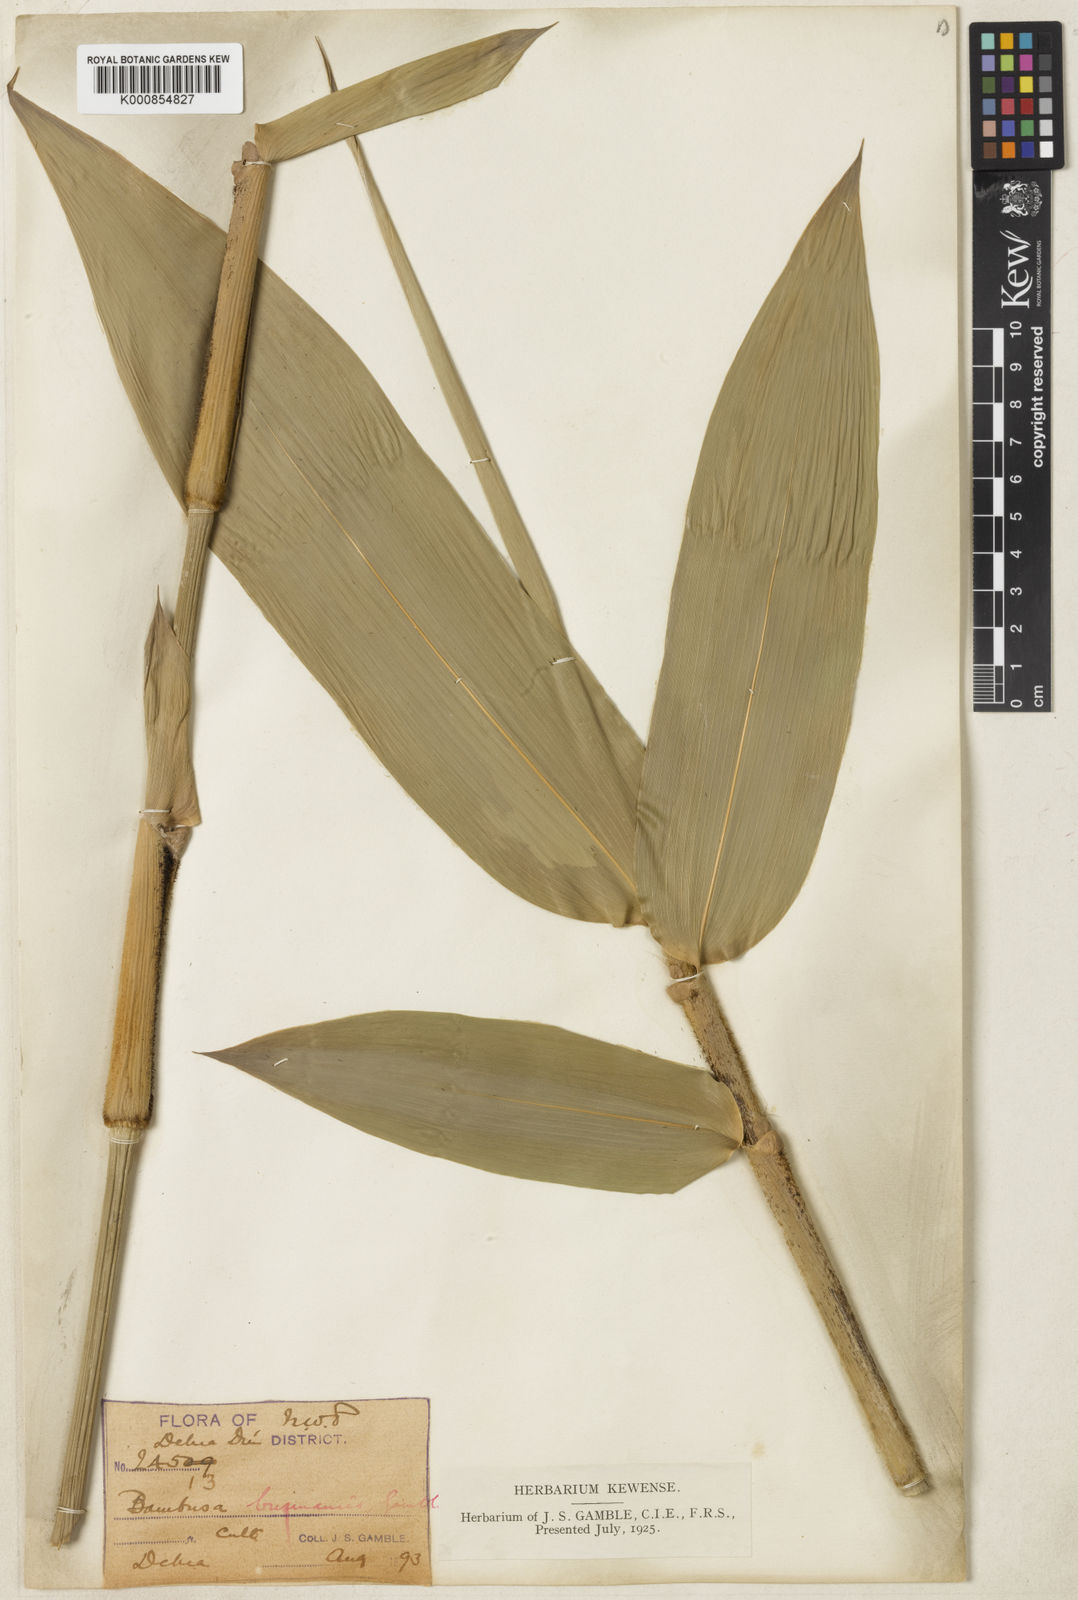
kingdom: Plantae
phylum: Tracheophyta
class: Liliopsida
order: Poales
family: Poaceae
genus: Bambusa
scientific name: Bambusa burmanica
